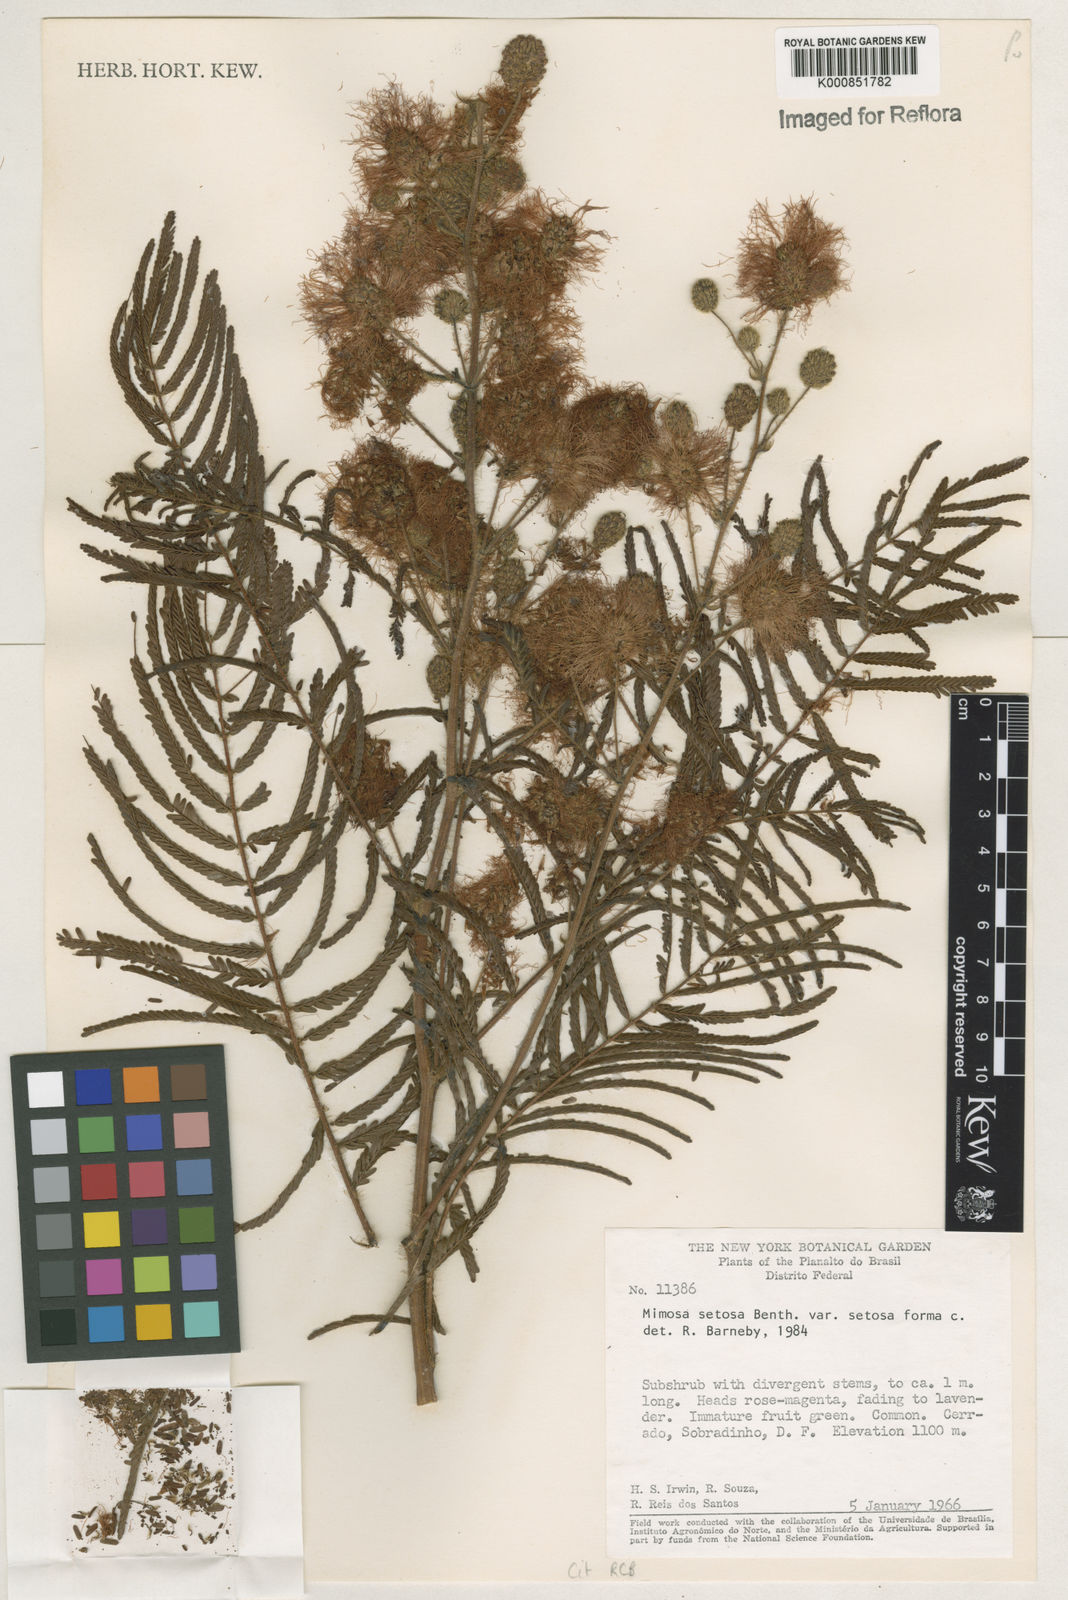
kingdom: Plantae
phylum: Tracheophyta
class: Magnoliopsida
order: Fabales
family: Fabaceae
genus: Mimosa
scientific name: Mimosa urbica
